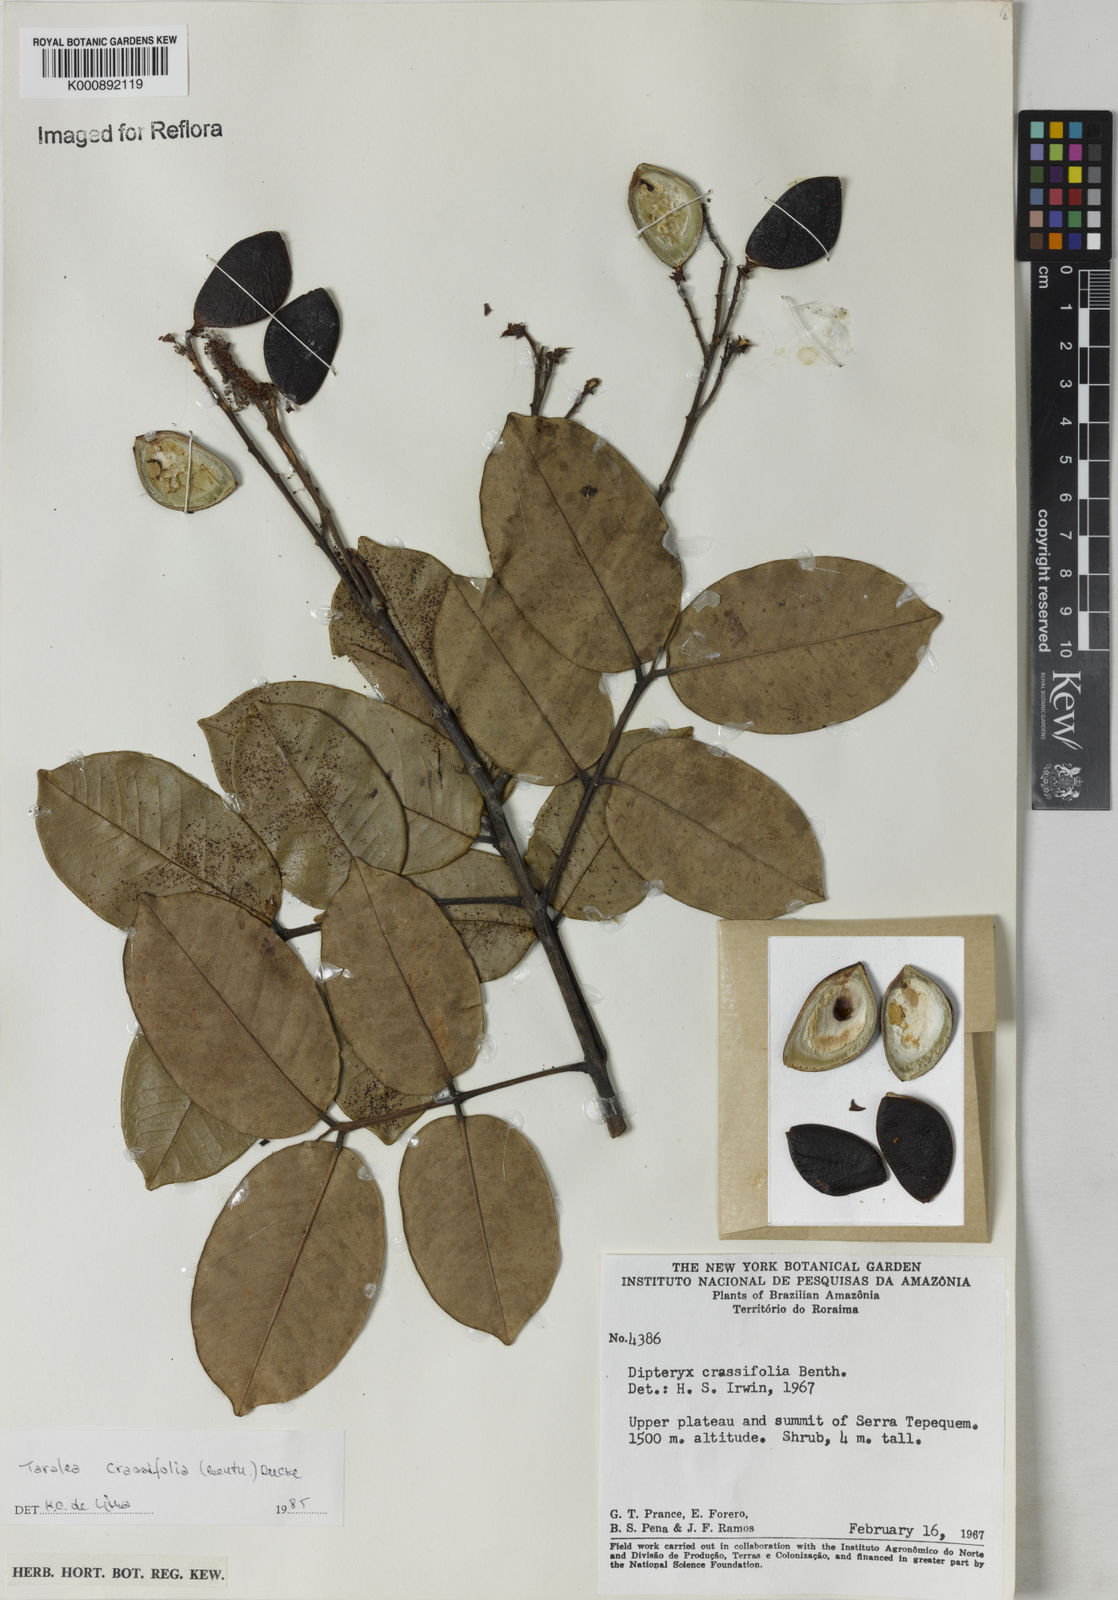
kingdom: Plantae
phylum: Tracheophyta
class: Magnoliopsida
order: Fabales
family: Fabaceae
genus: Taralea
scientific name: Taralea crassifolia
